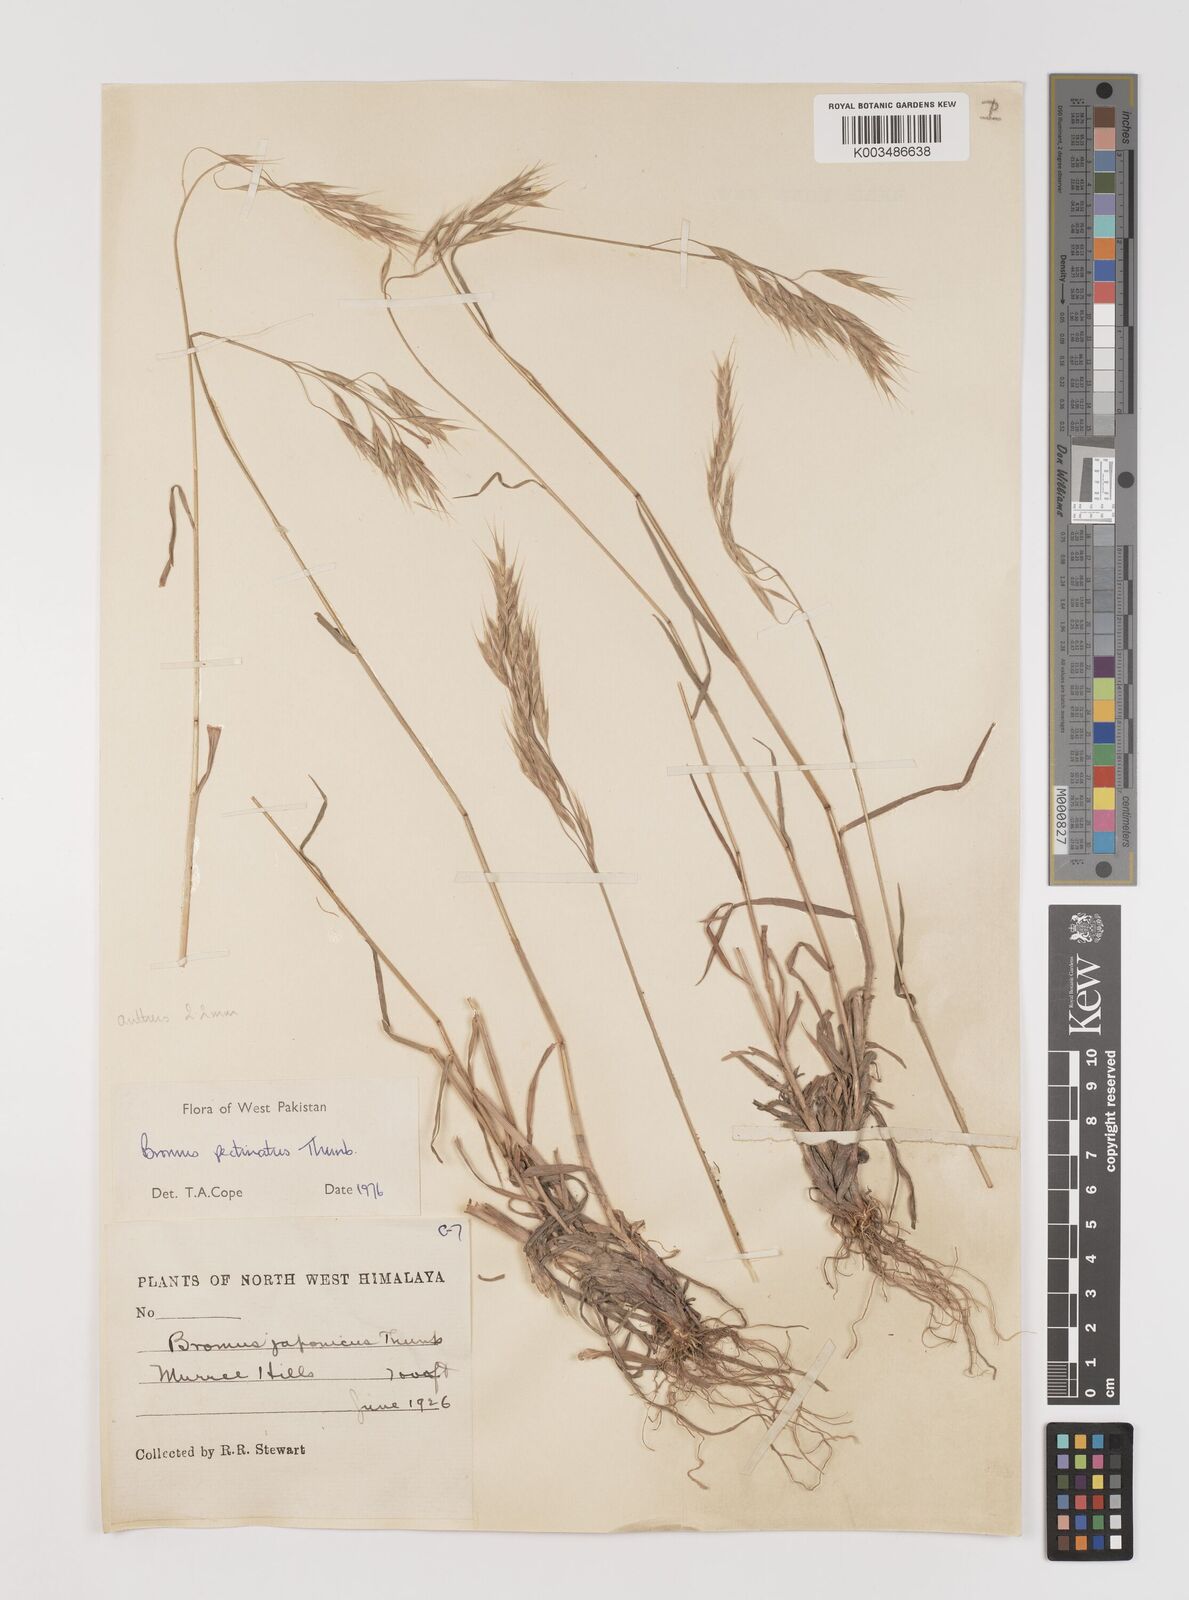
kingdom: Plantae
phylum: Tracheophyta
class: Liliopsida
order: Poales
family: Poaceae
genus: Bromus
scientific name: Bromus pectinatus
